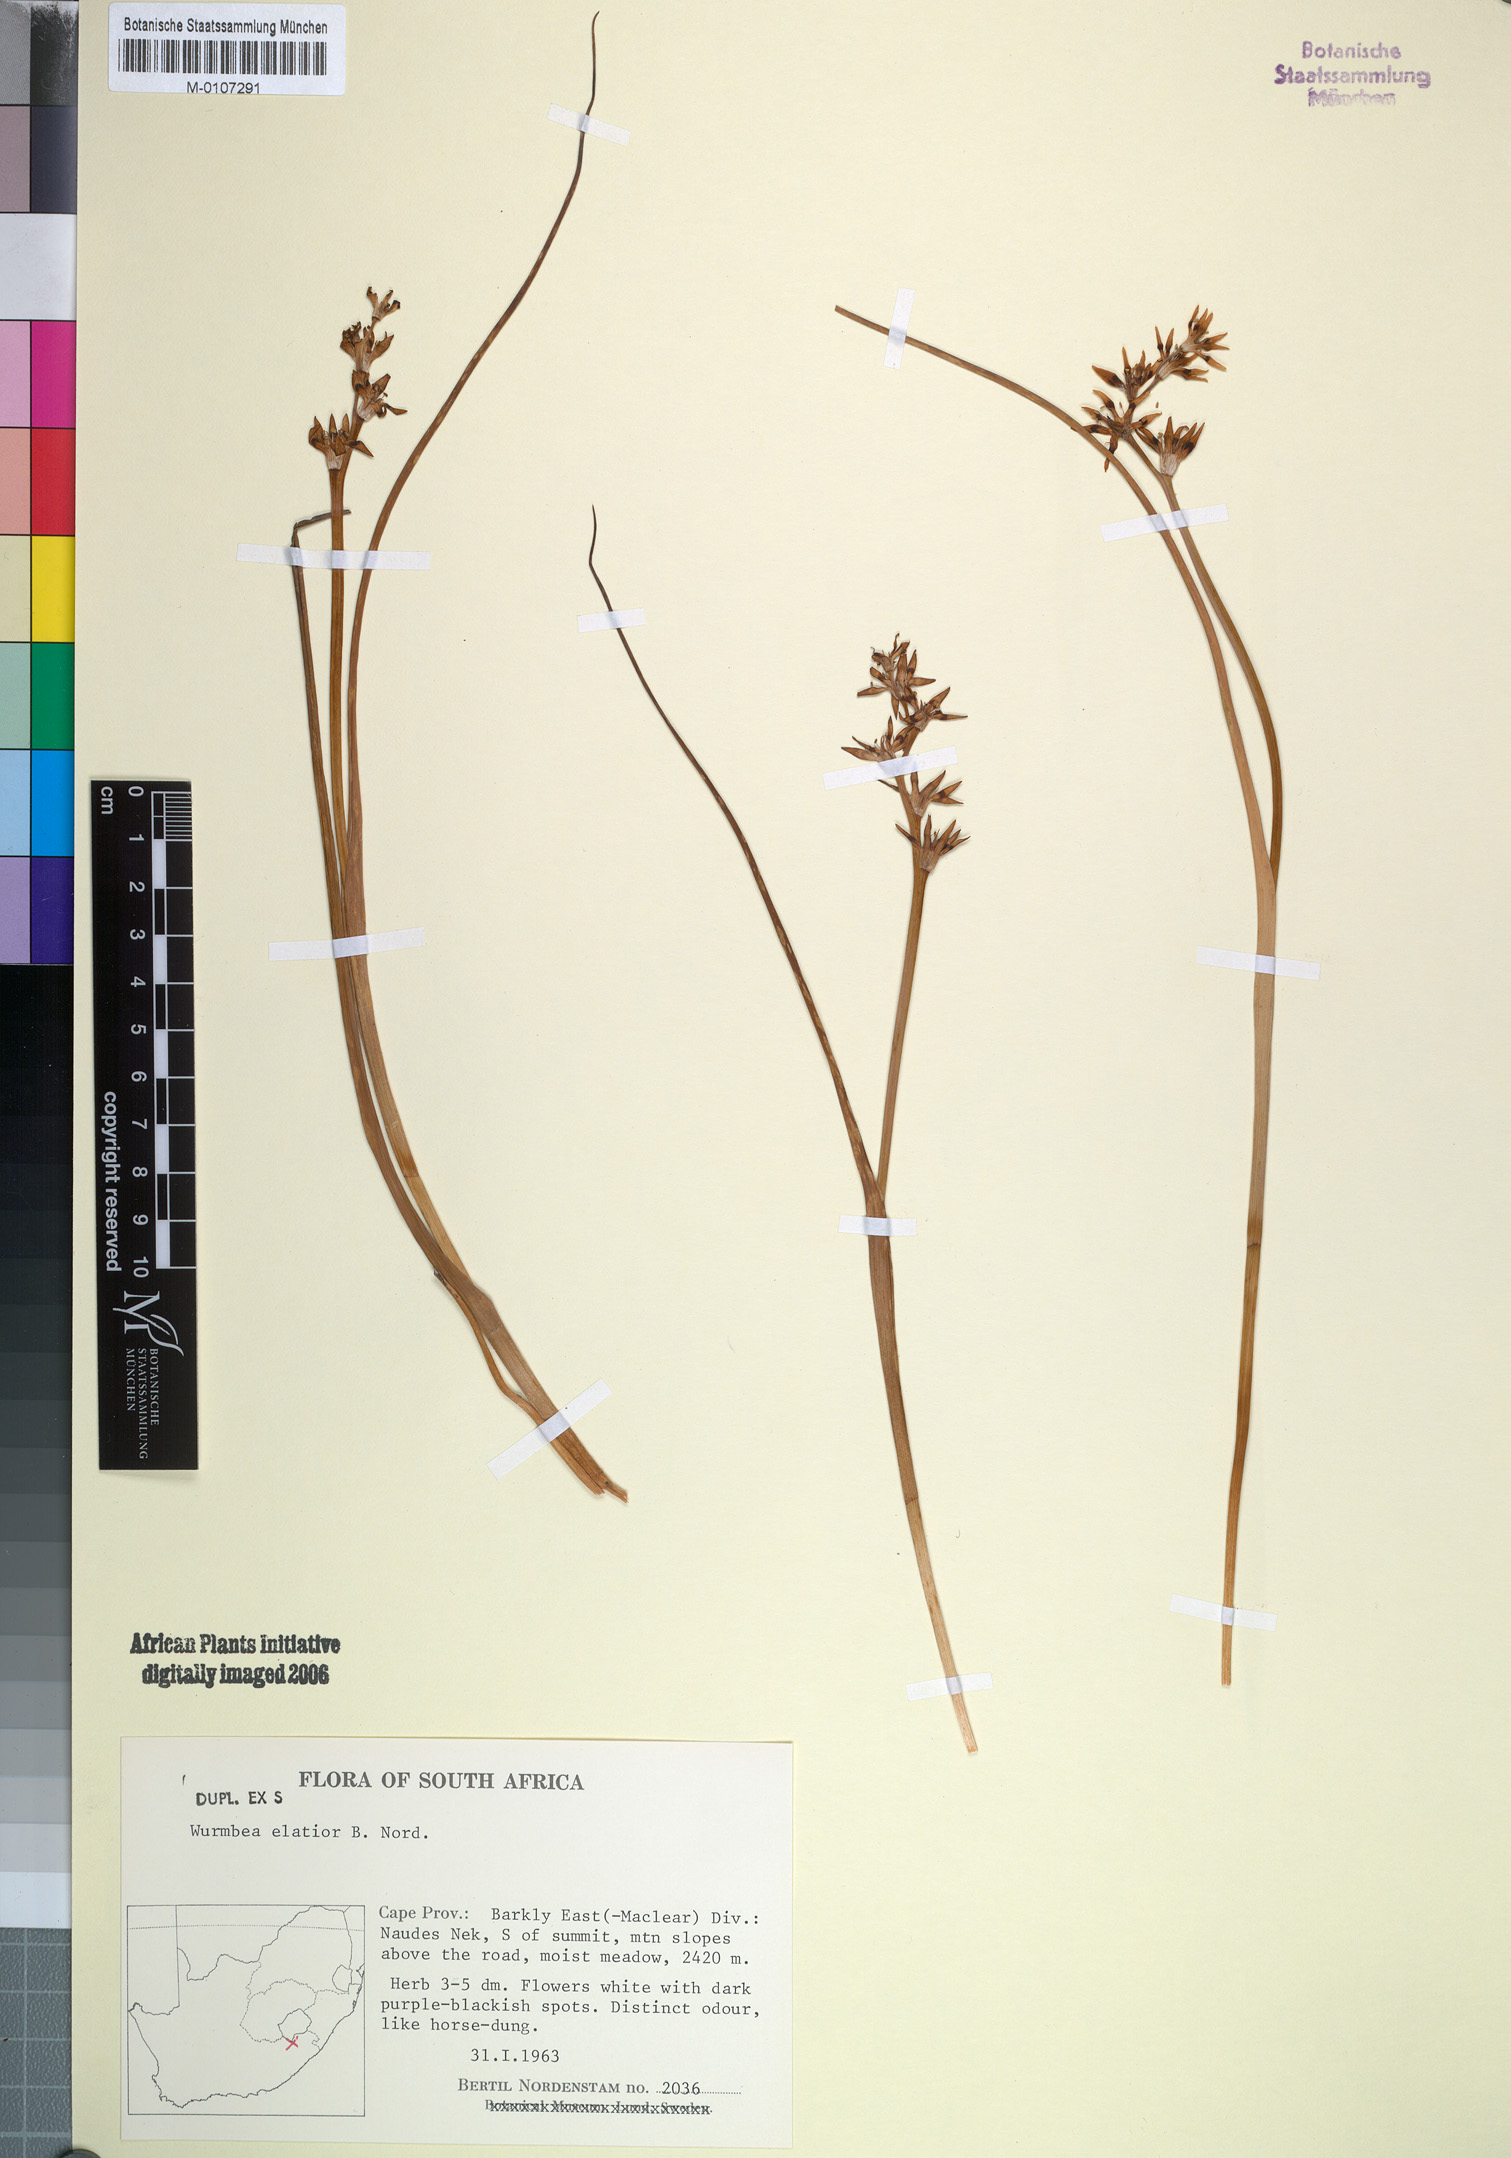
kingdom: Plantae
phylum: Tracheophyta
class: Liliopsida
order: Liliales
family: Colchicaceae
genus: Wurmbea
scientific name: Wurmbea elatior
